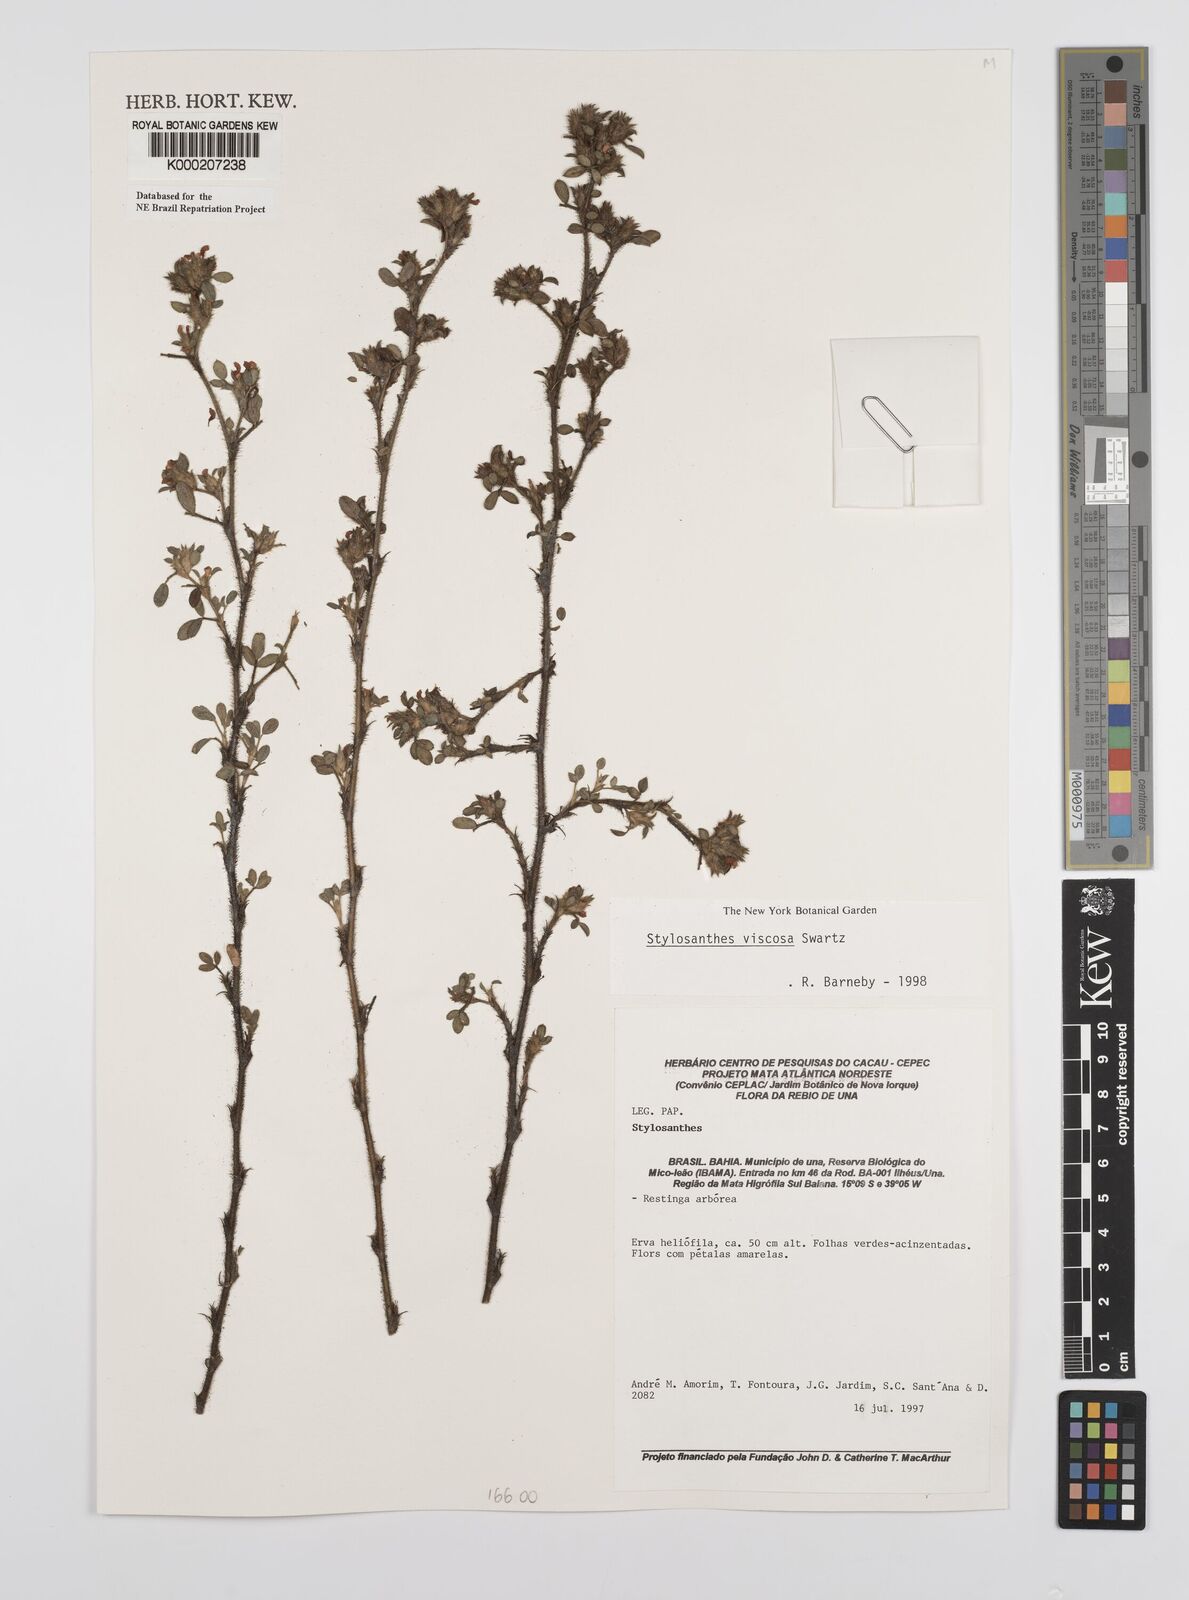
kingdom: Plantae
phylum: Tracheophyta
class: Magnoliopsida
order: Fabales
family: Fabaceae
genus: Stylosanthes
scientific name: Stylosanthes viscosa
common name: Viscid pencil-flower
